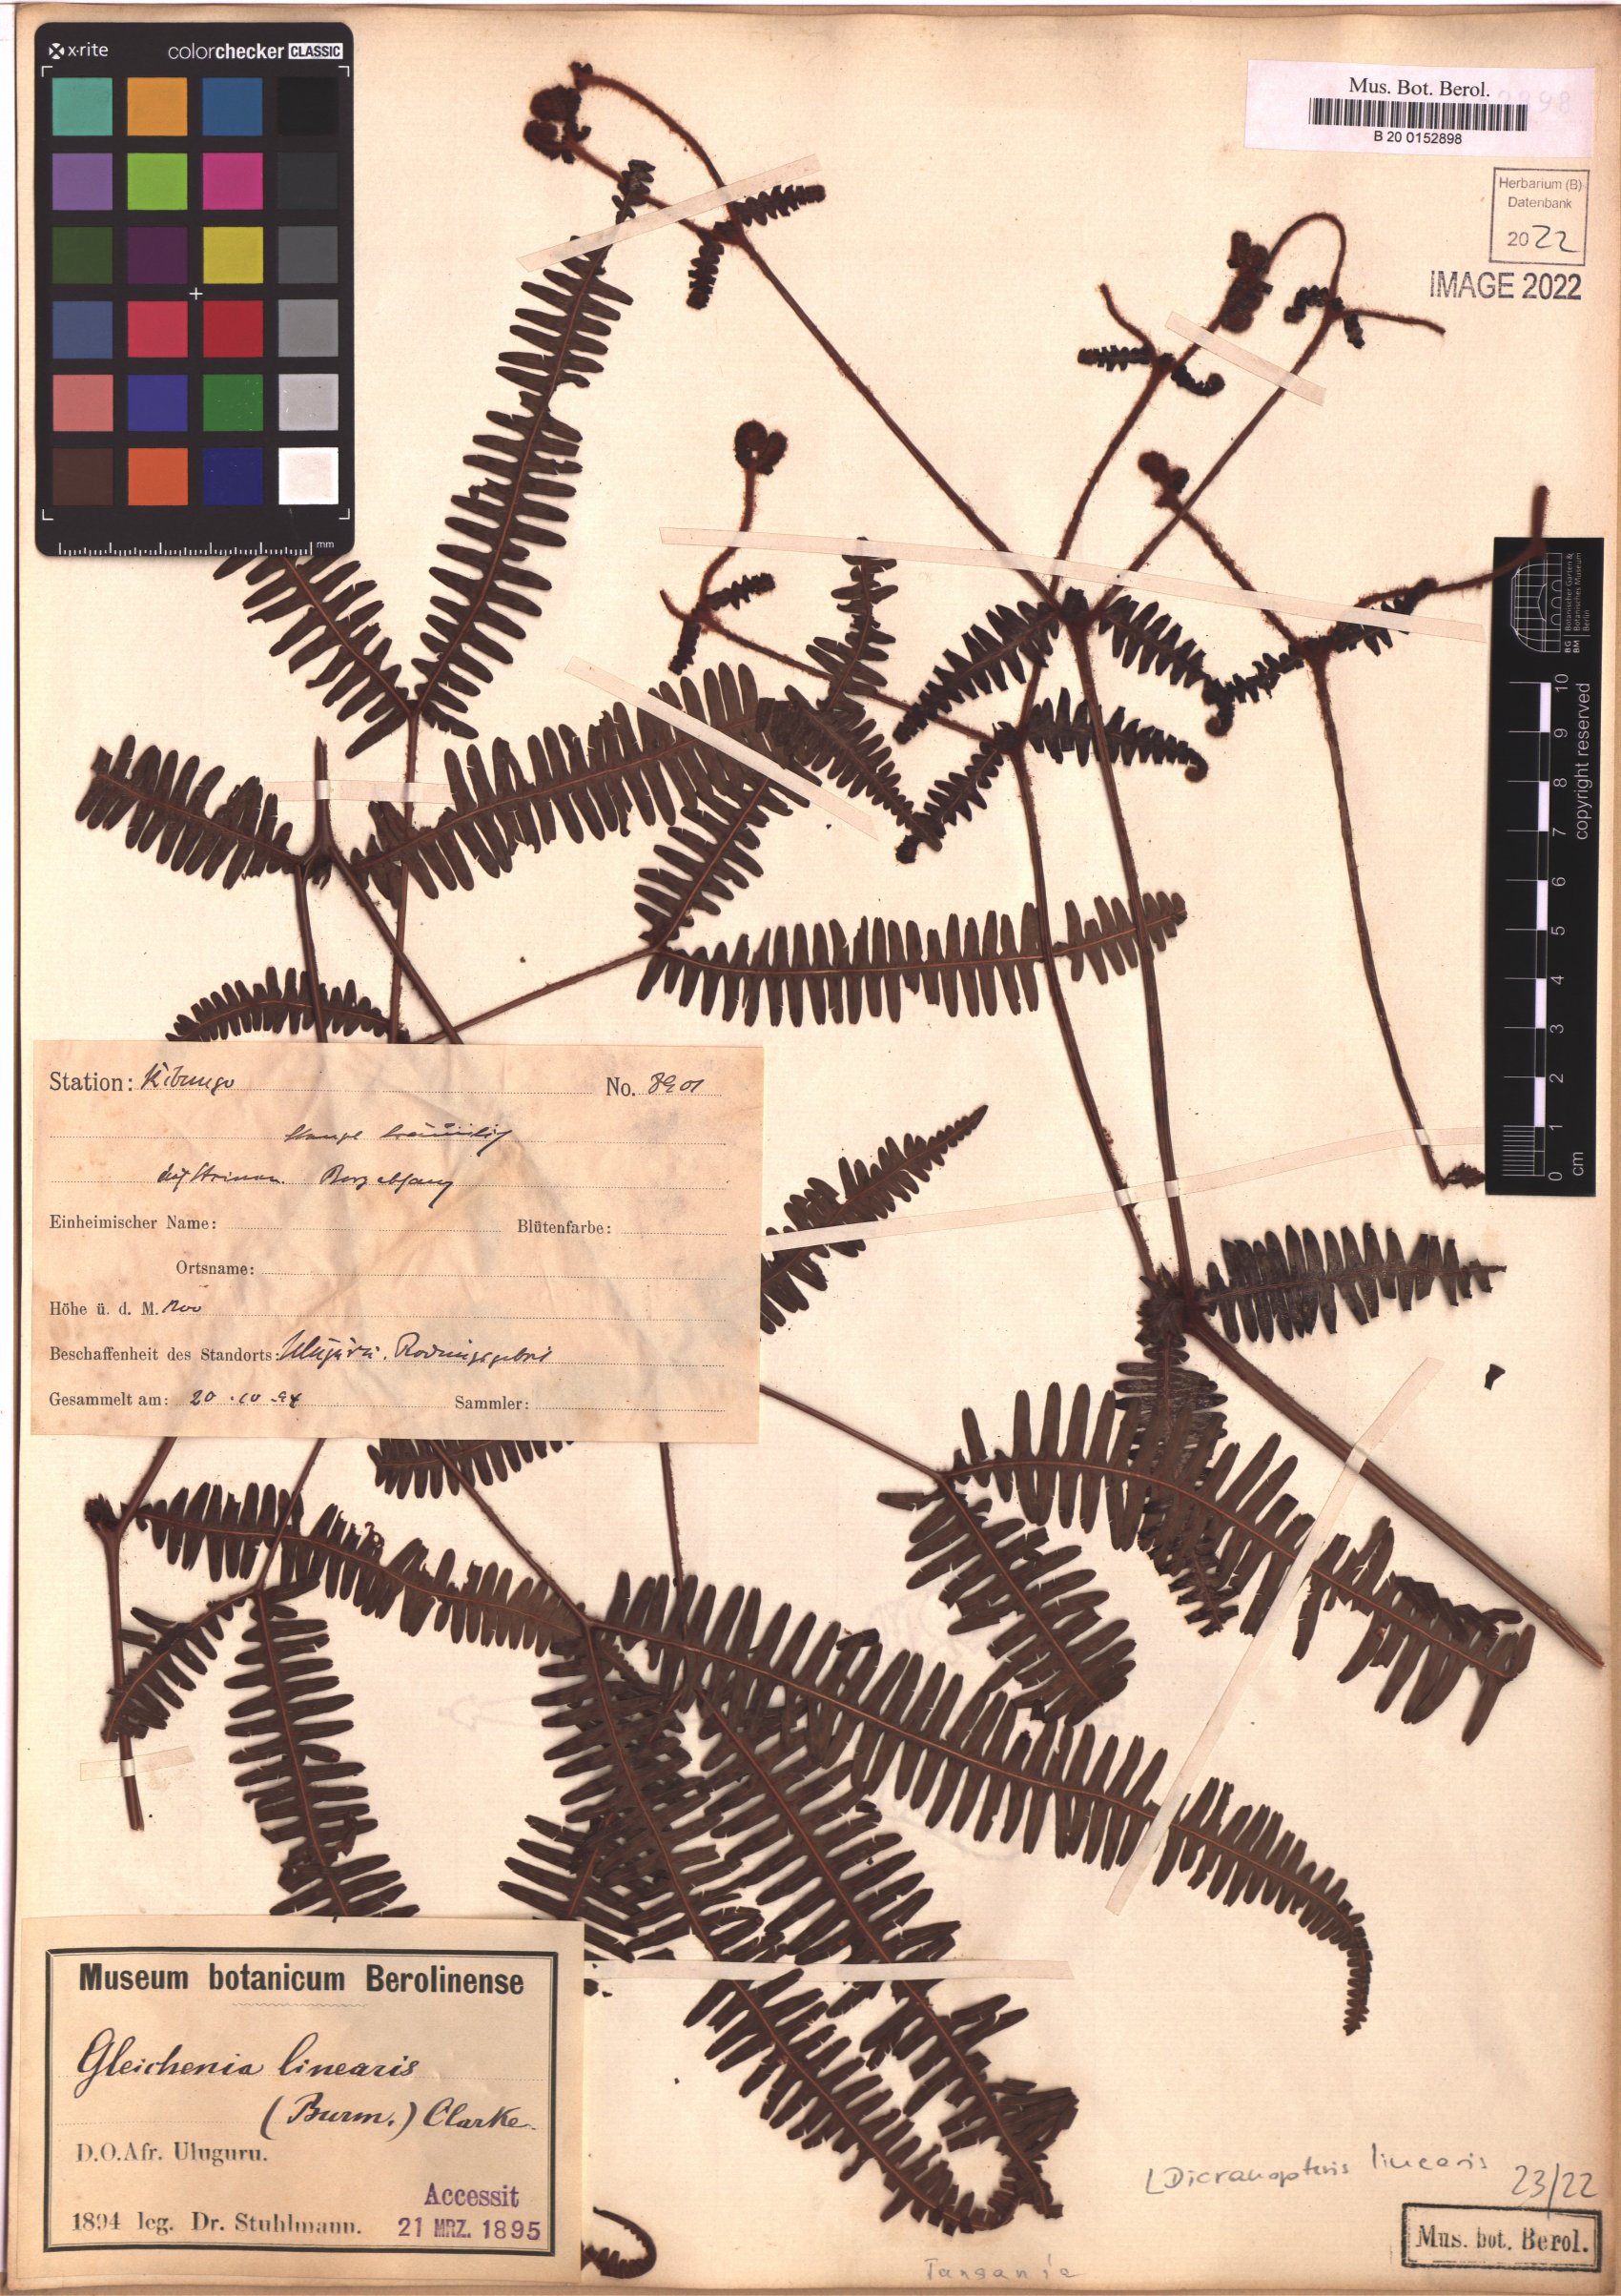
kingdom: Plantae
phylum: Tracheophyta
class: Polypodiopsida
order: Gleicheniales
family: Gleicheniaceae
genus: Dicranopteris
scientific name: Dicranopteris linearis
